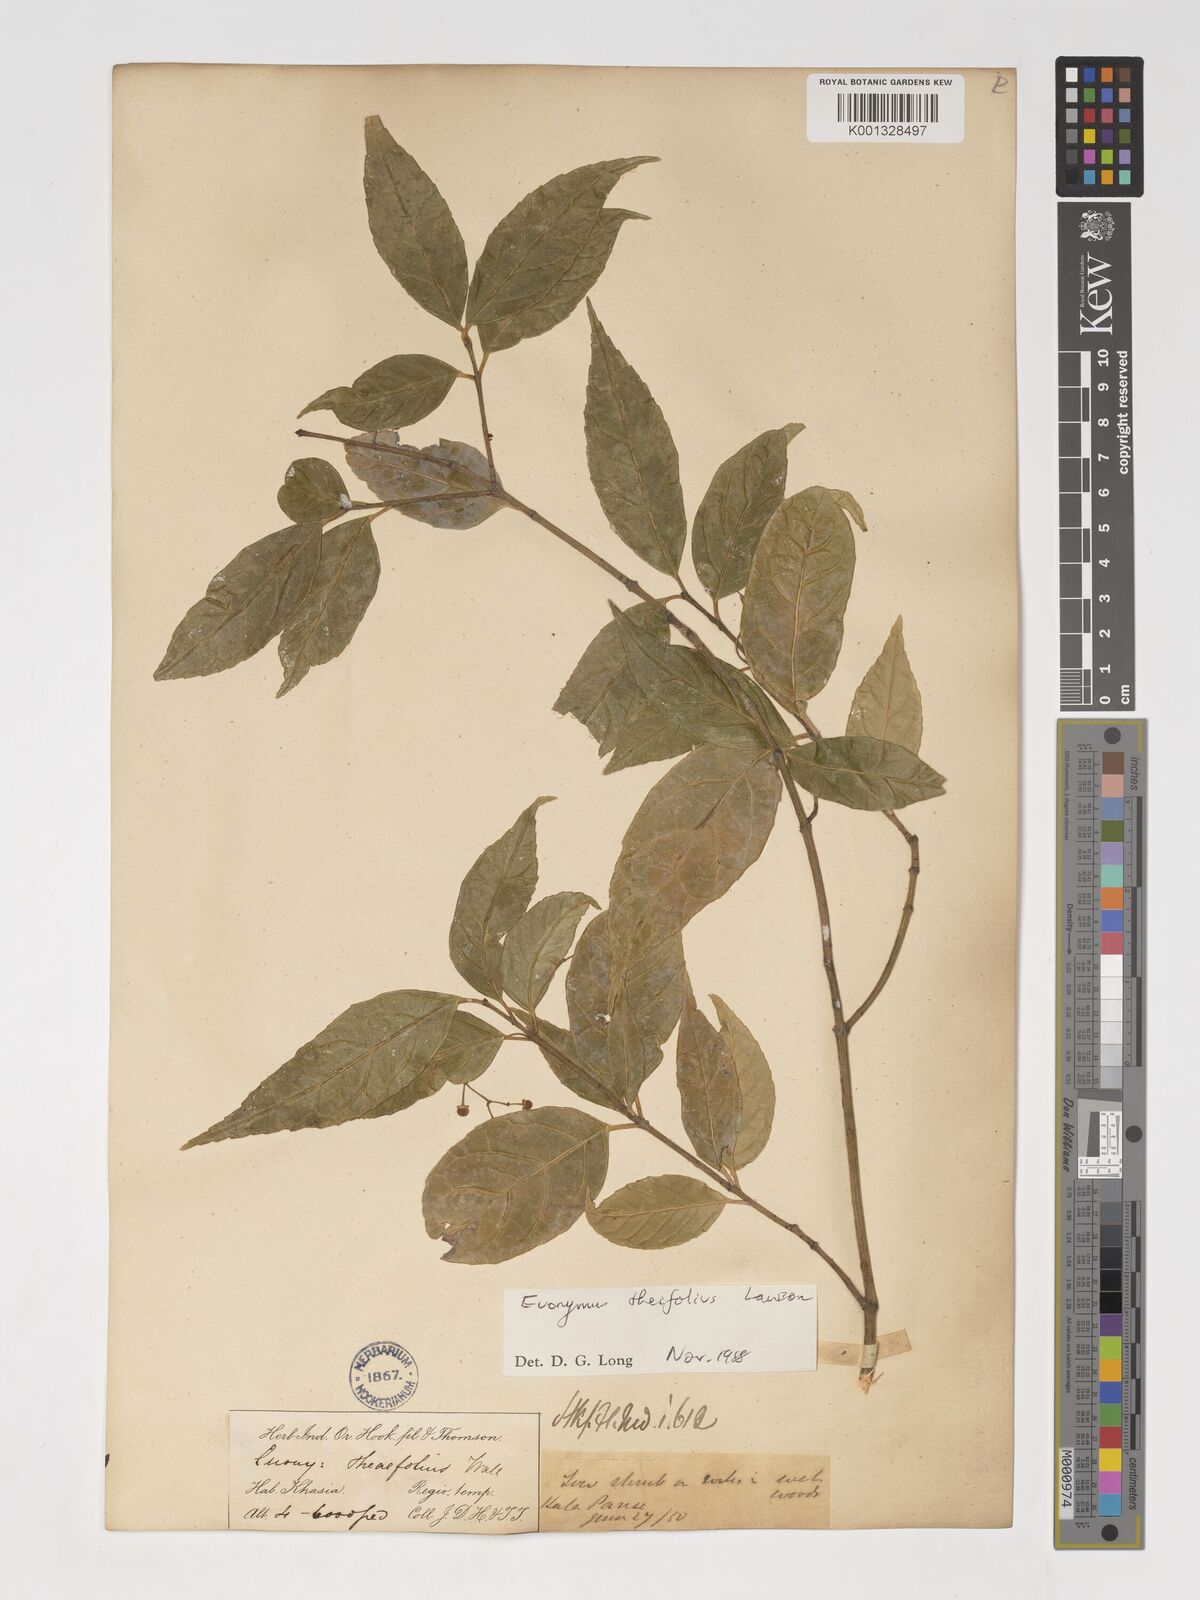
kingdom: Plantae
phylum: Tracheophyta
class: Magnoliopsida
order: Celastrales
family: Celastraceae
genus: Euonymus
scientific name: Euonymus theifolius
